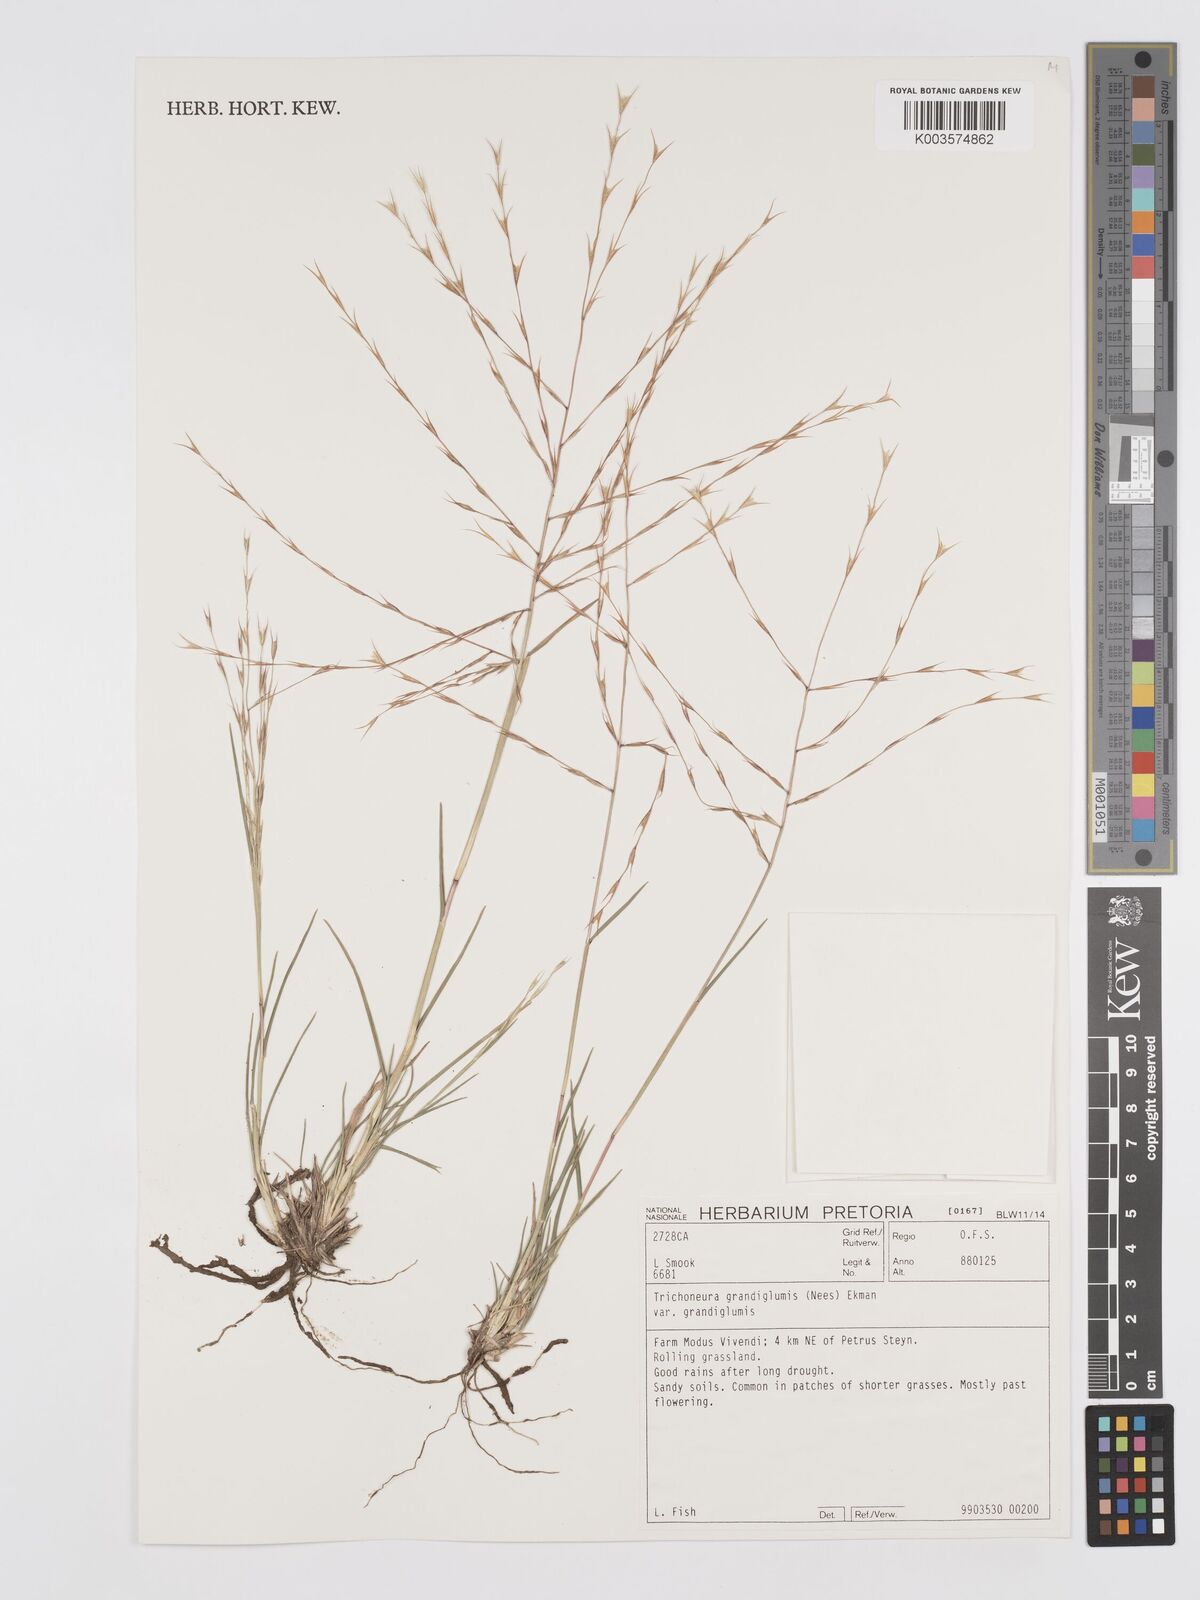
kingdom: Plantae
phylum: Tracheophyta
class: Liliopsida
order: Poales
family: Poaceae
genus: Trichoneura
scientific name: Trichoneura grandiglumis
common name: Rolling grass
